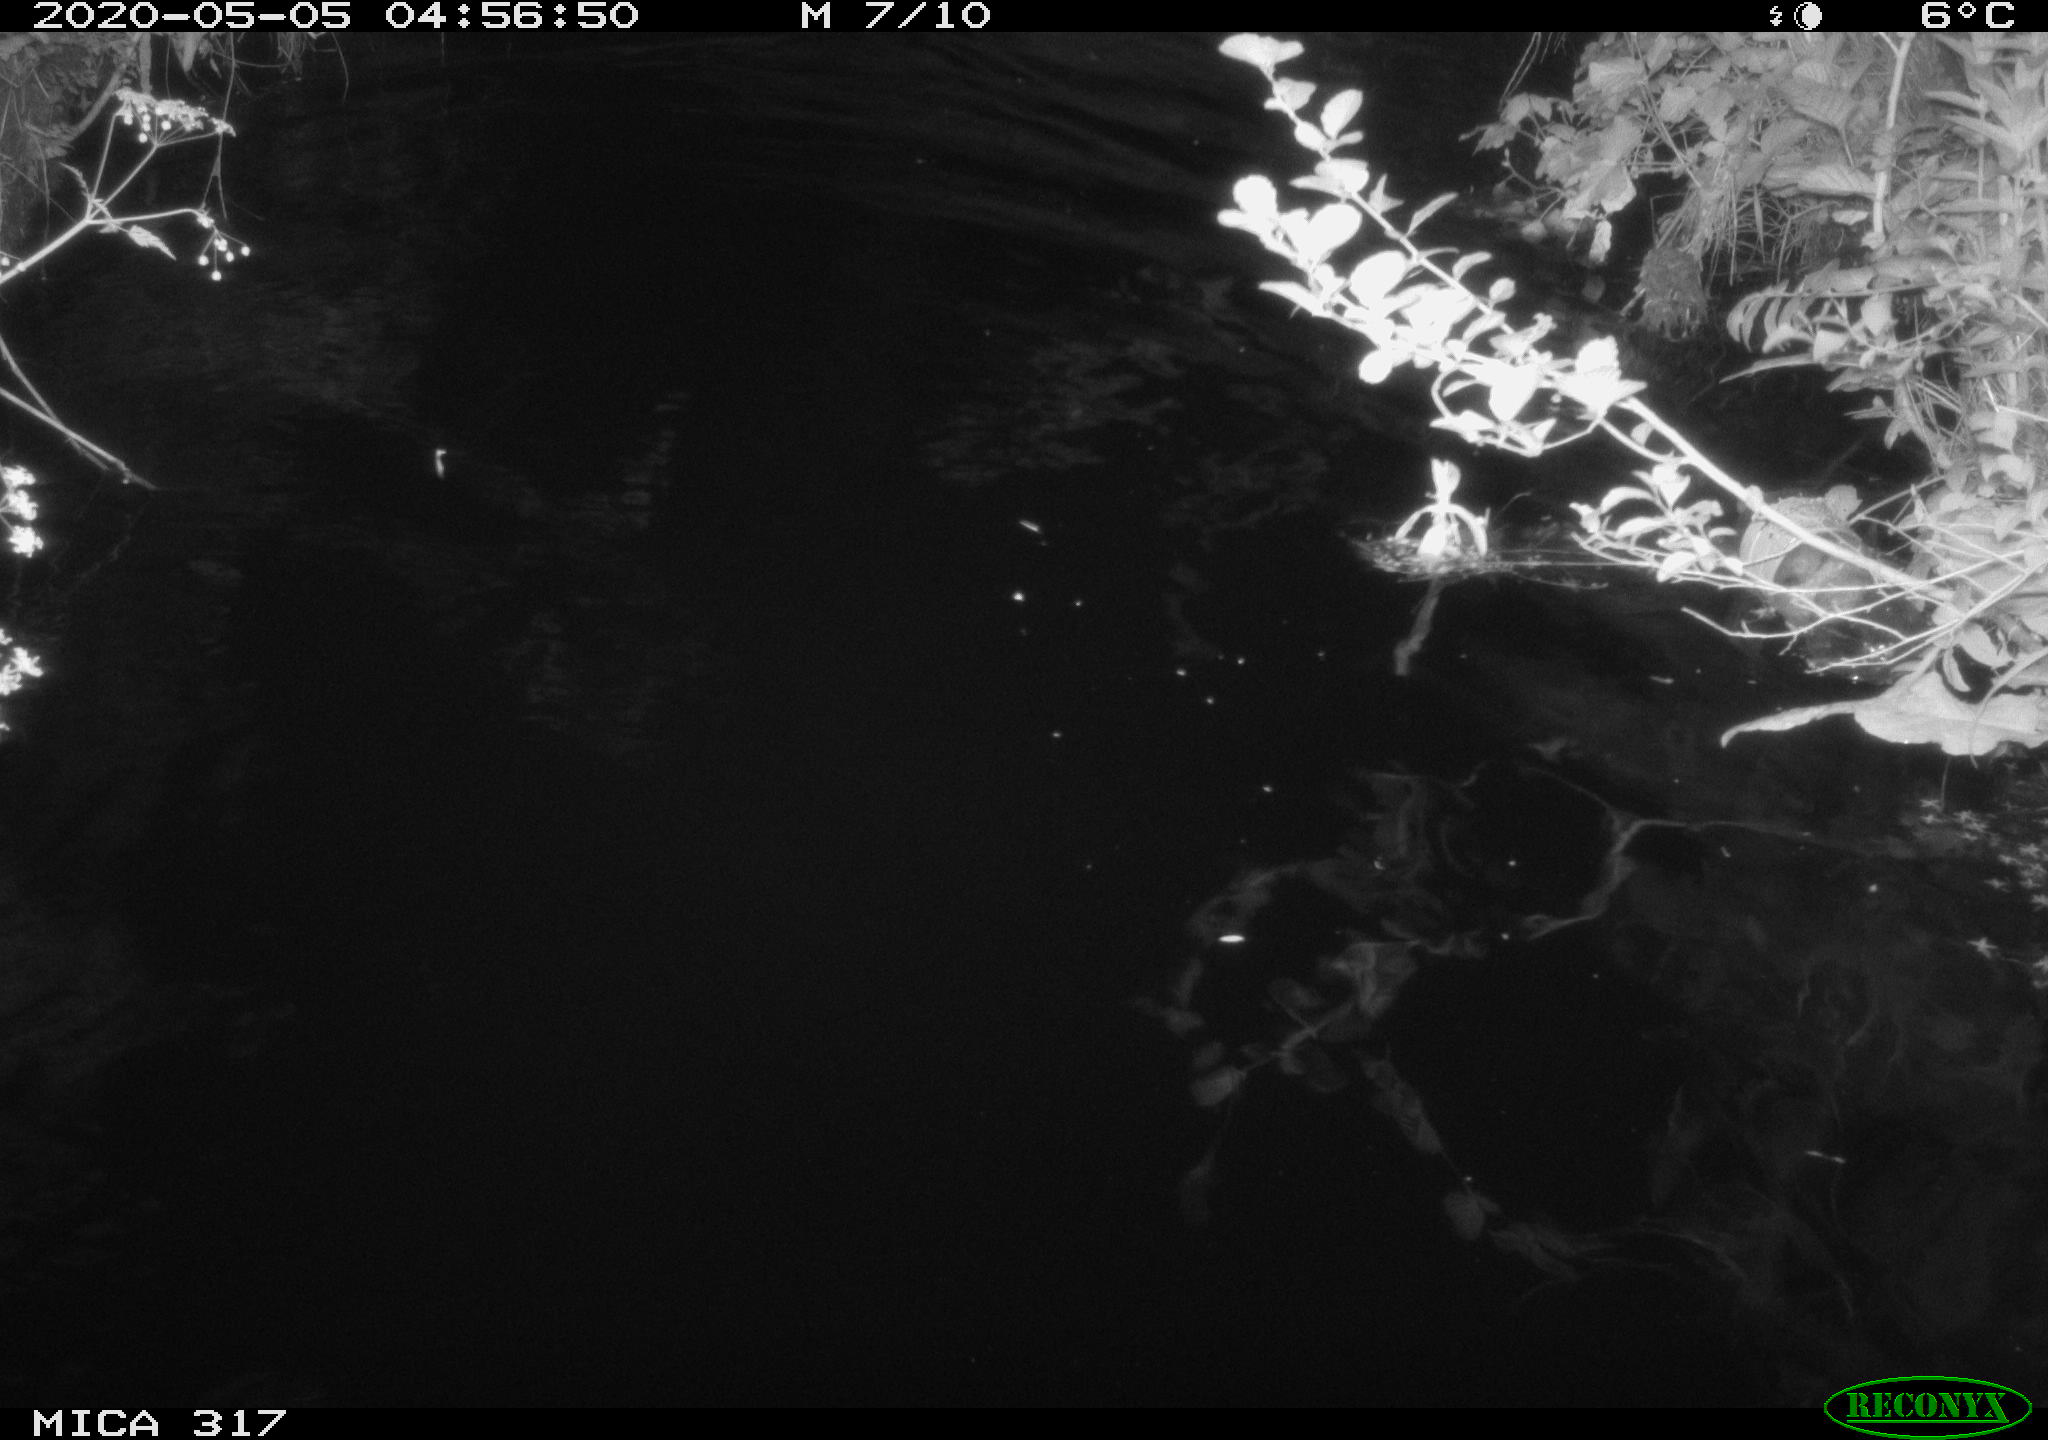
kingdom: Animalia
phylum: Chordata
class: Aves
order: Anseriformes
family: Anatidae
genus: Anas
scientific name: Anas platyrhynchos
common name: Mallard
